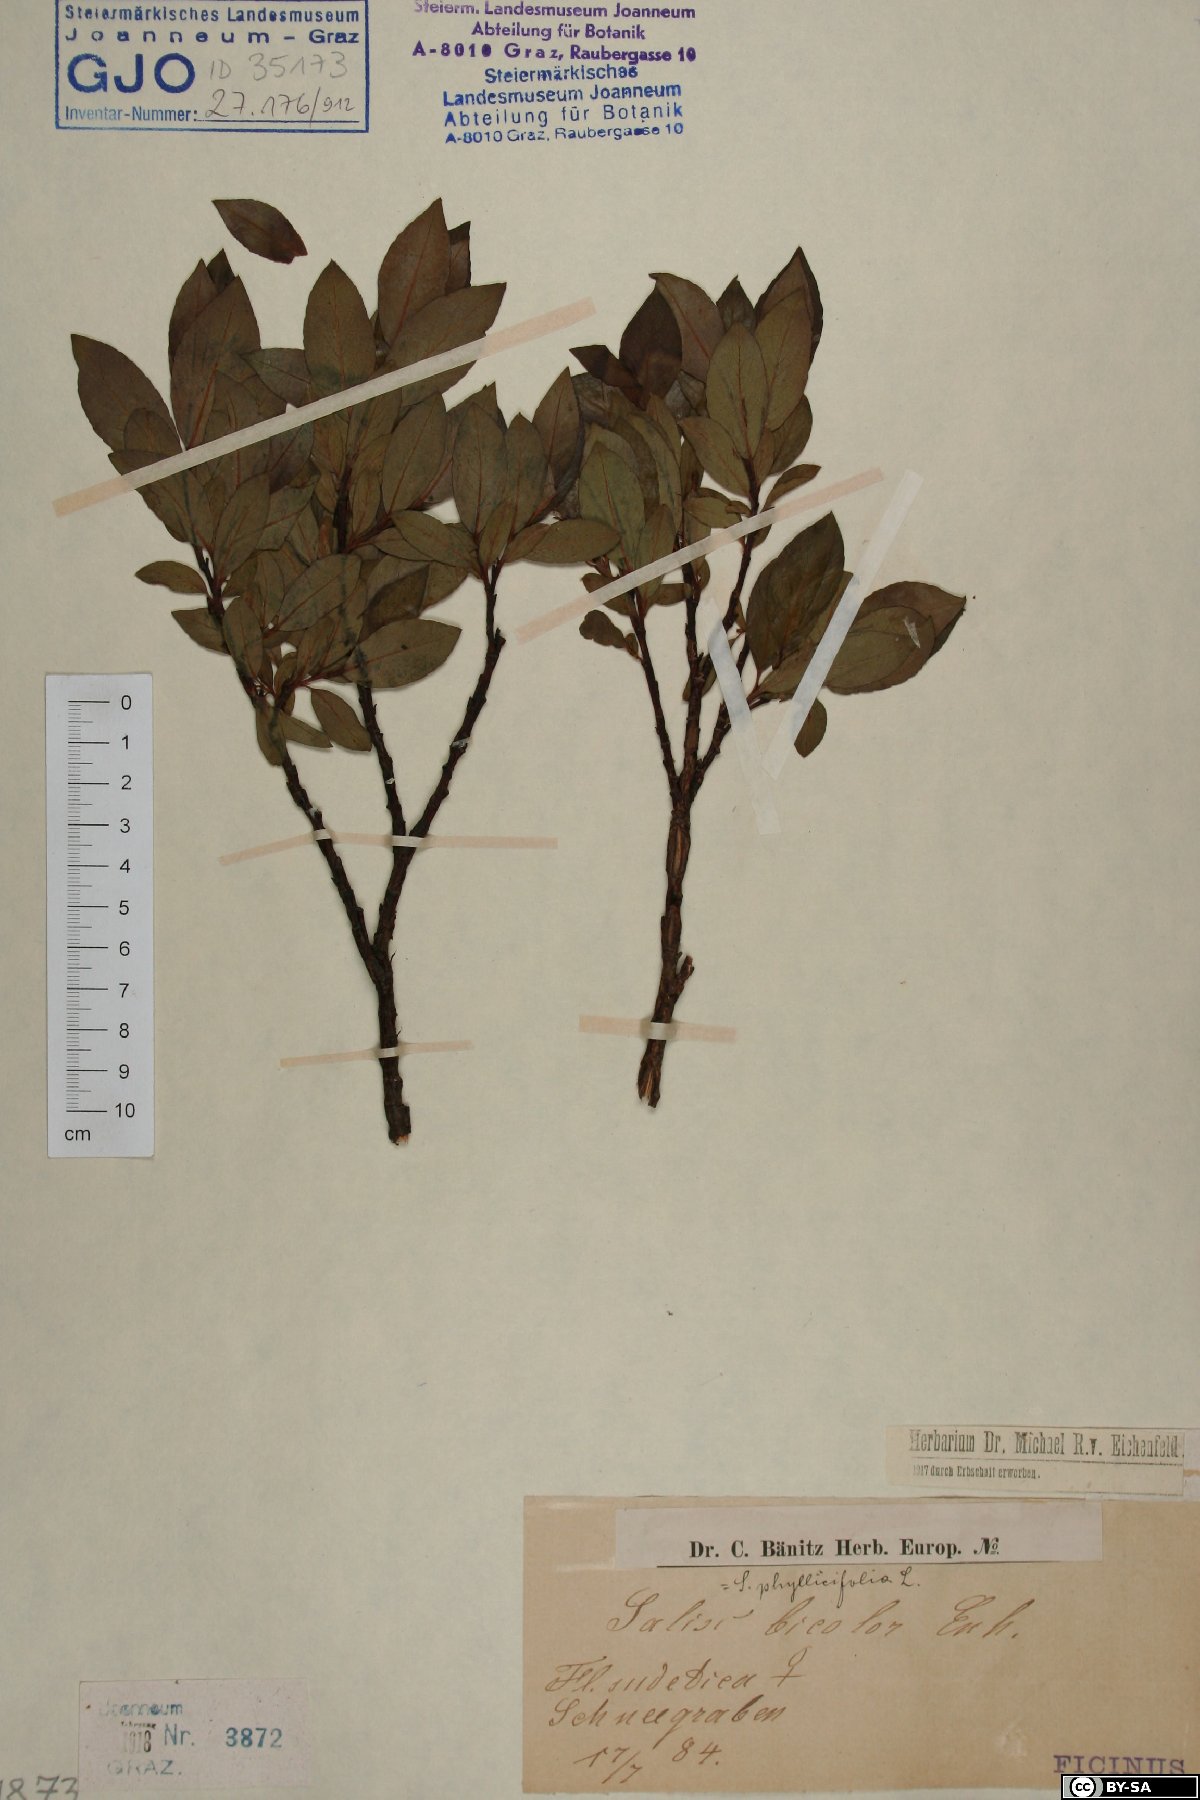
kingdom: Plantae
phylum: Tracheophyta
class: Magnoliopsida
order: Malpighiales
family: Salicaceae
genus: Salix
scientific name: Salix bicolor
